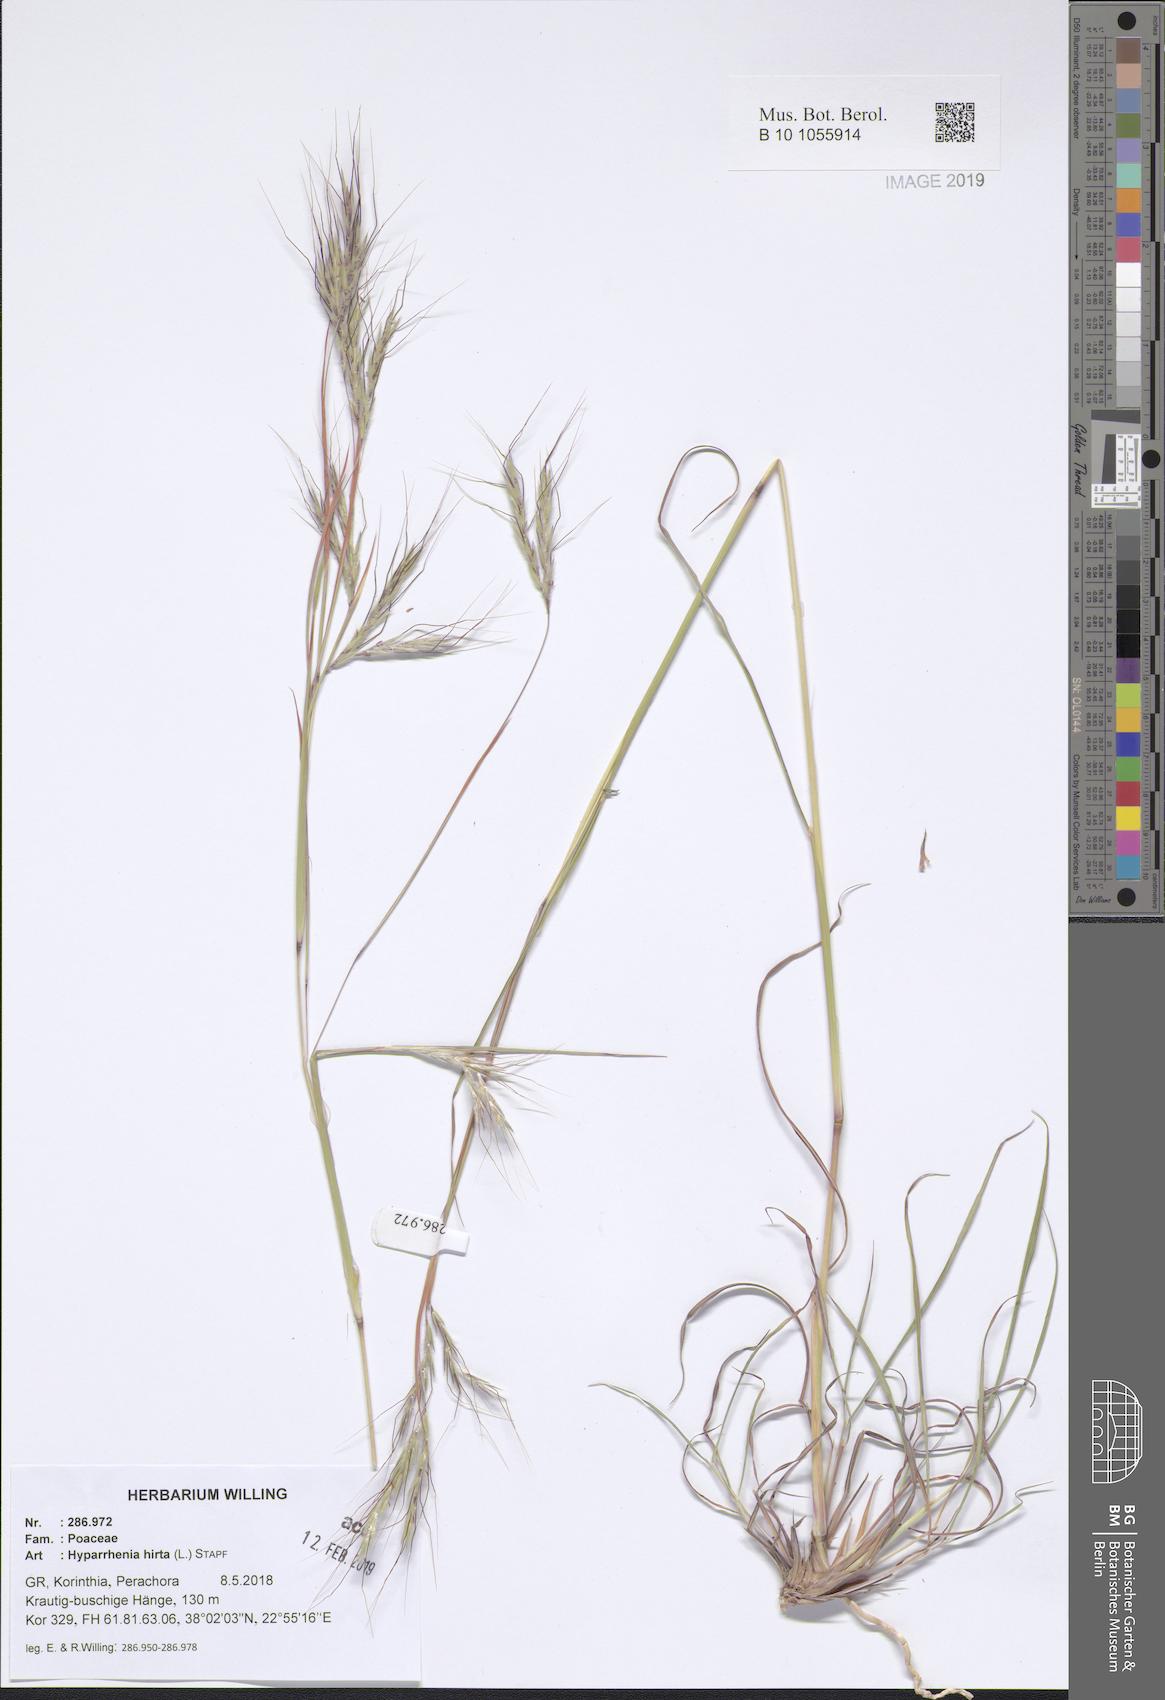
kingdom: Plantae
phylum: Tracheophyta
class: Liliopsida
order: Poales
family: Poaceae
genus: Hyparrhenia
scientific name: Hyparrhenia hirta
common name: Thatching grass
